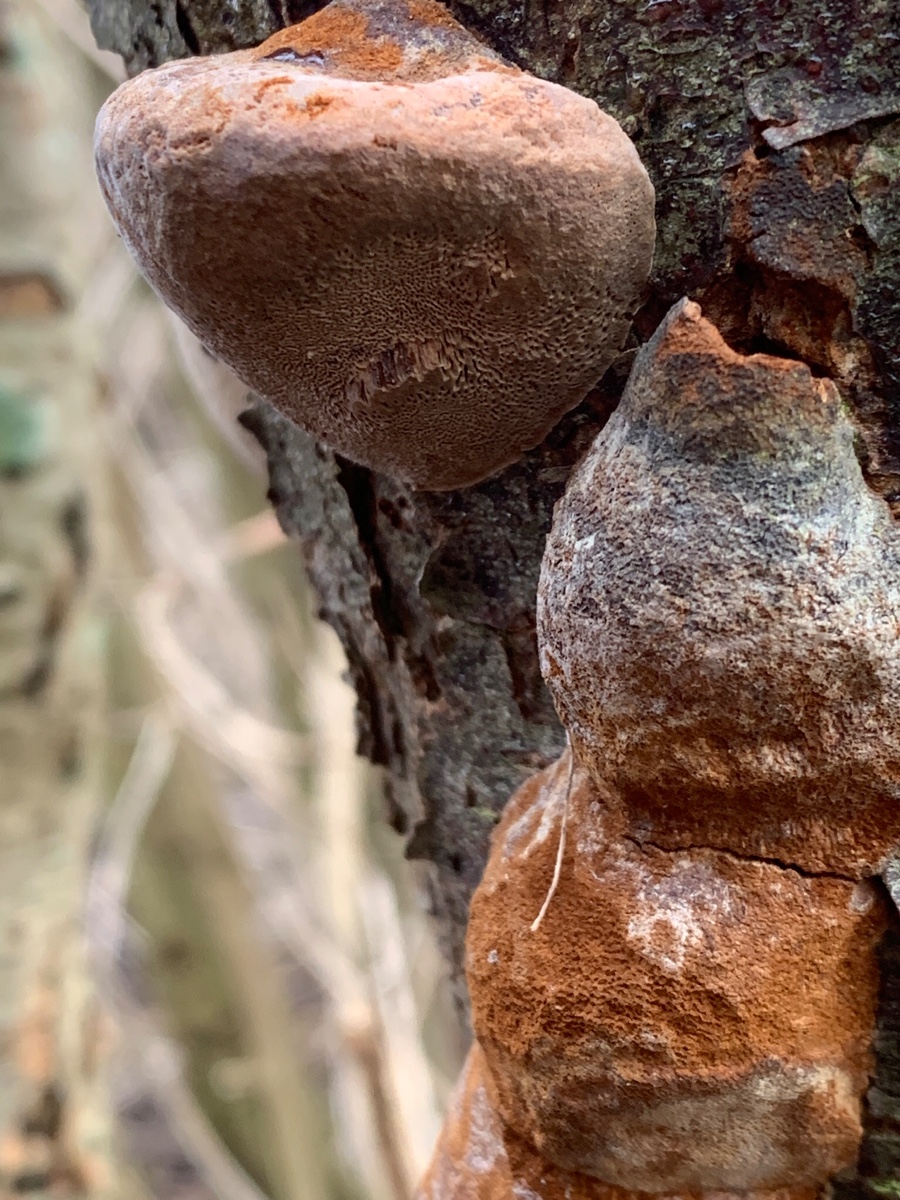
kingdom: Fungi
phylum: Basidiomycota
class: Agaricomycetes
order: Hymenochaetales
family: Hymenochaetaceae
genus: Phellinus
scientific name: Phellinus pomaceus
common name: blomme-ildporesvamp
